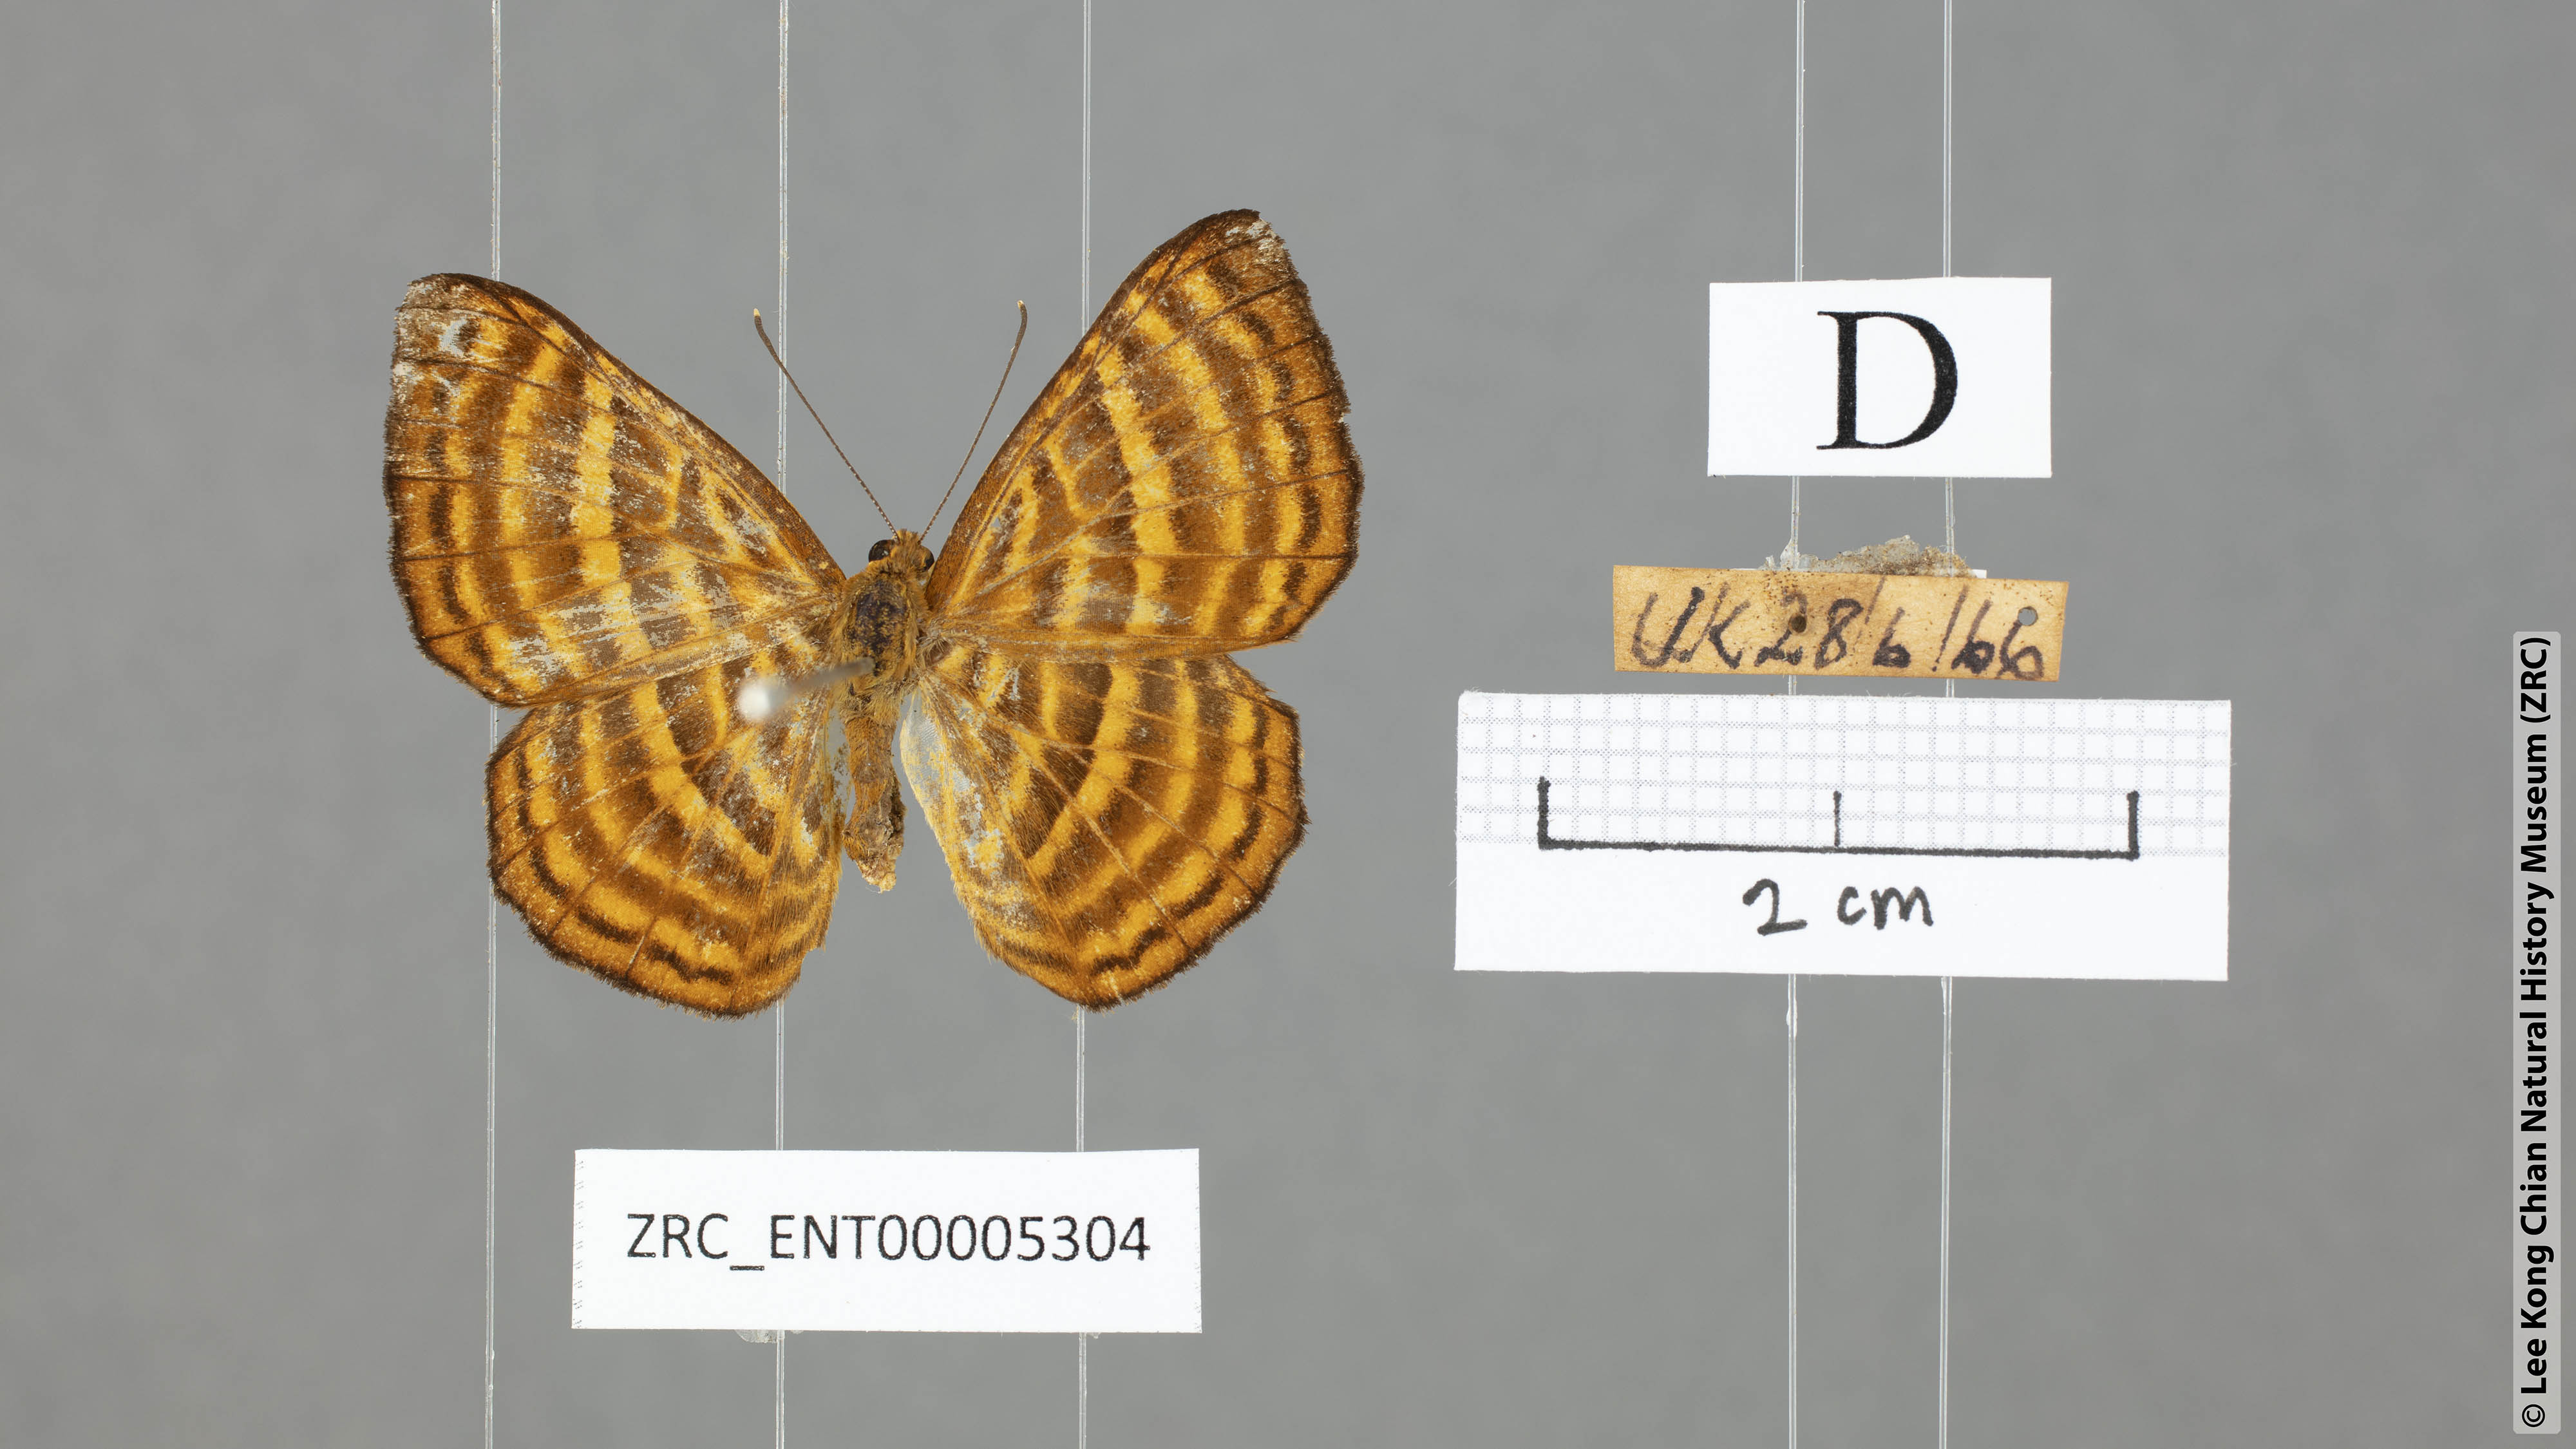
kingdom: Animalia
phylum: Arthropoda
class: Insecta
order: Lepidoptera
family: Riodinidae
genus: Zemeros
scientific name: Zemeros emesoides
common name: Malay punchinello
